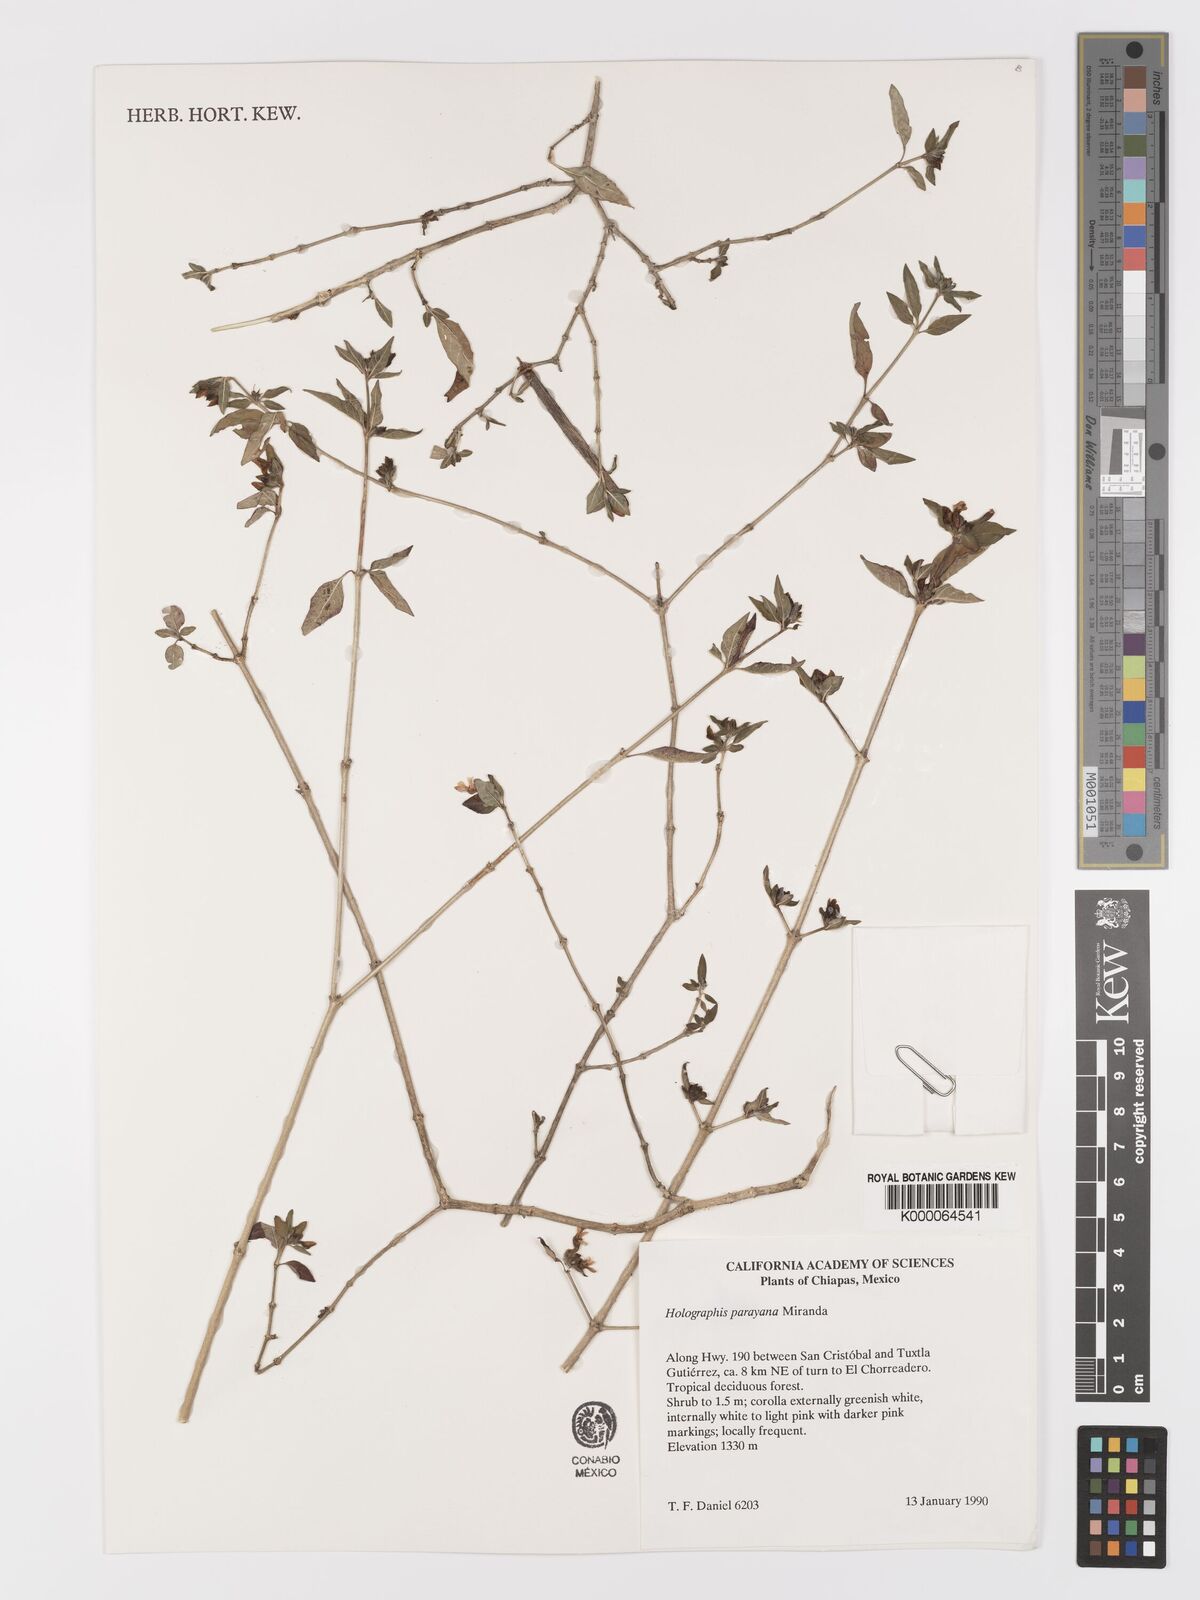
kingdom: Plantae
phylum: Tracheophyta
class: Magnoliopsida
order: Lamiales
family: Acanthaceae
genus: Holographis
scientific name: Holographis parayana
